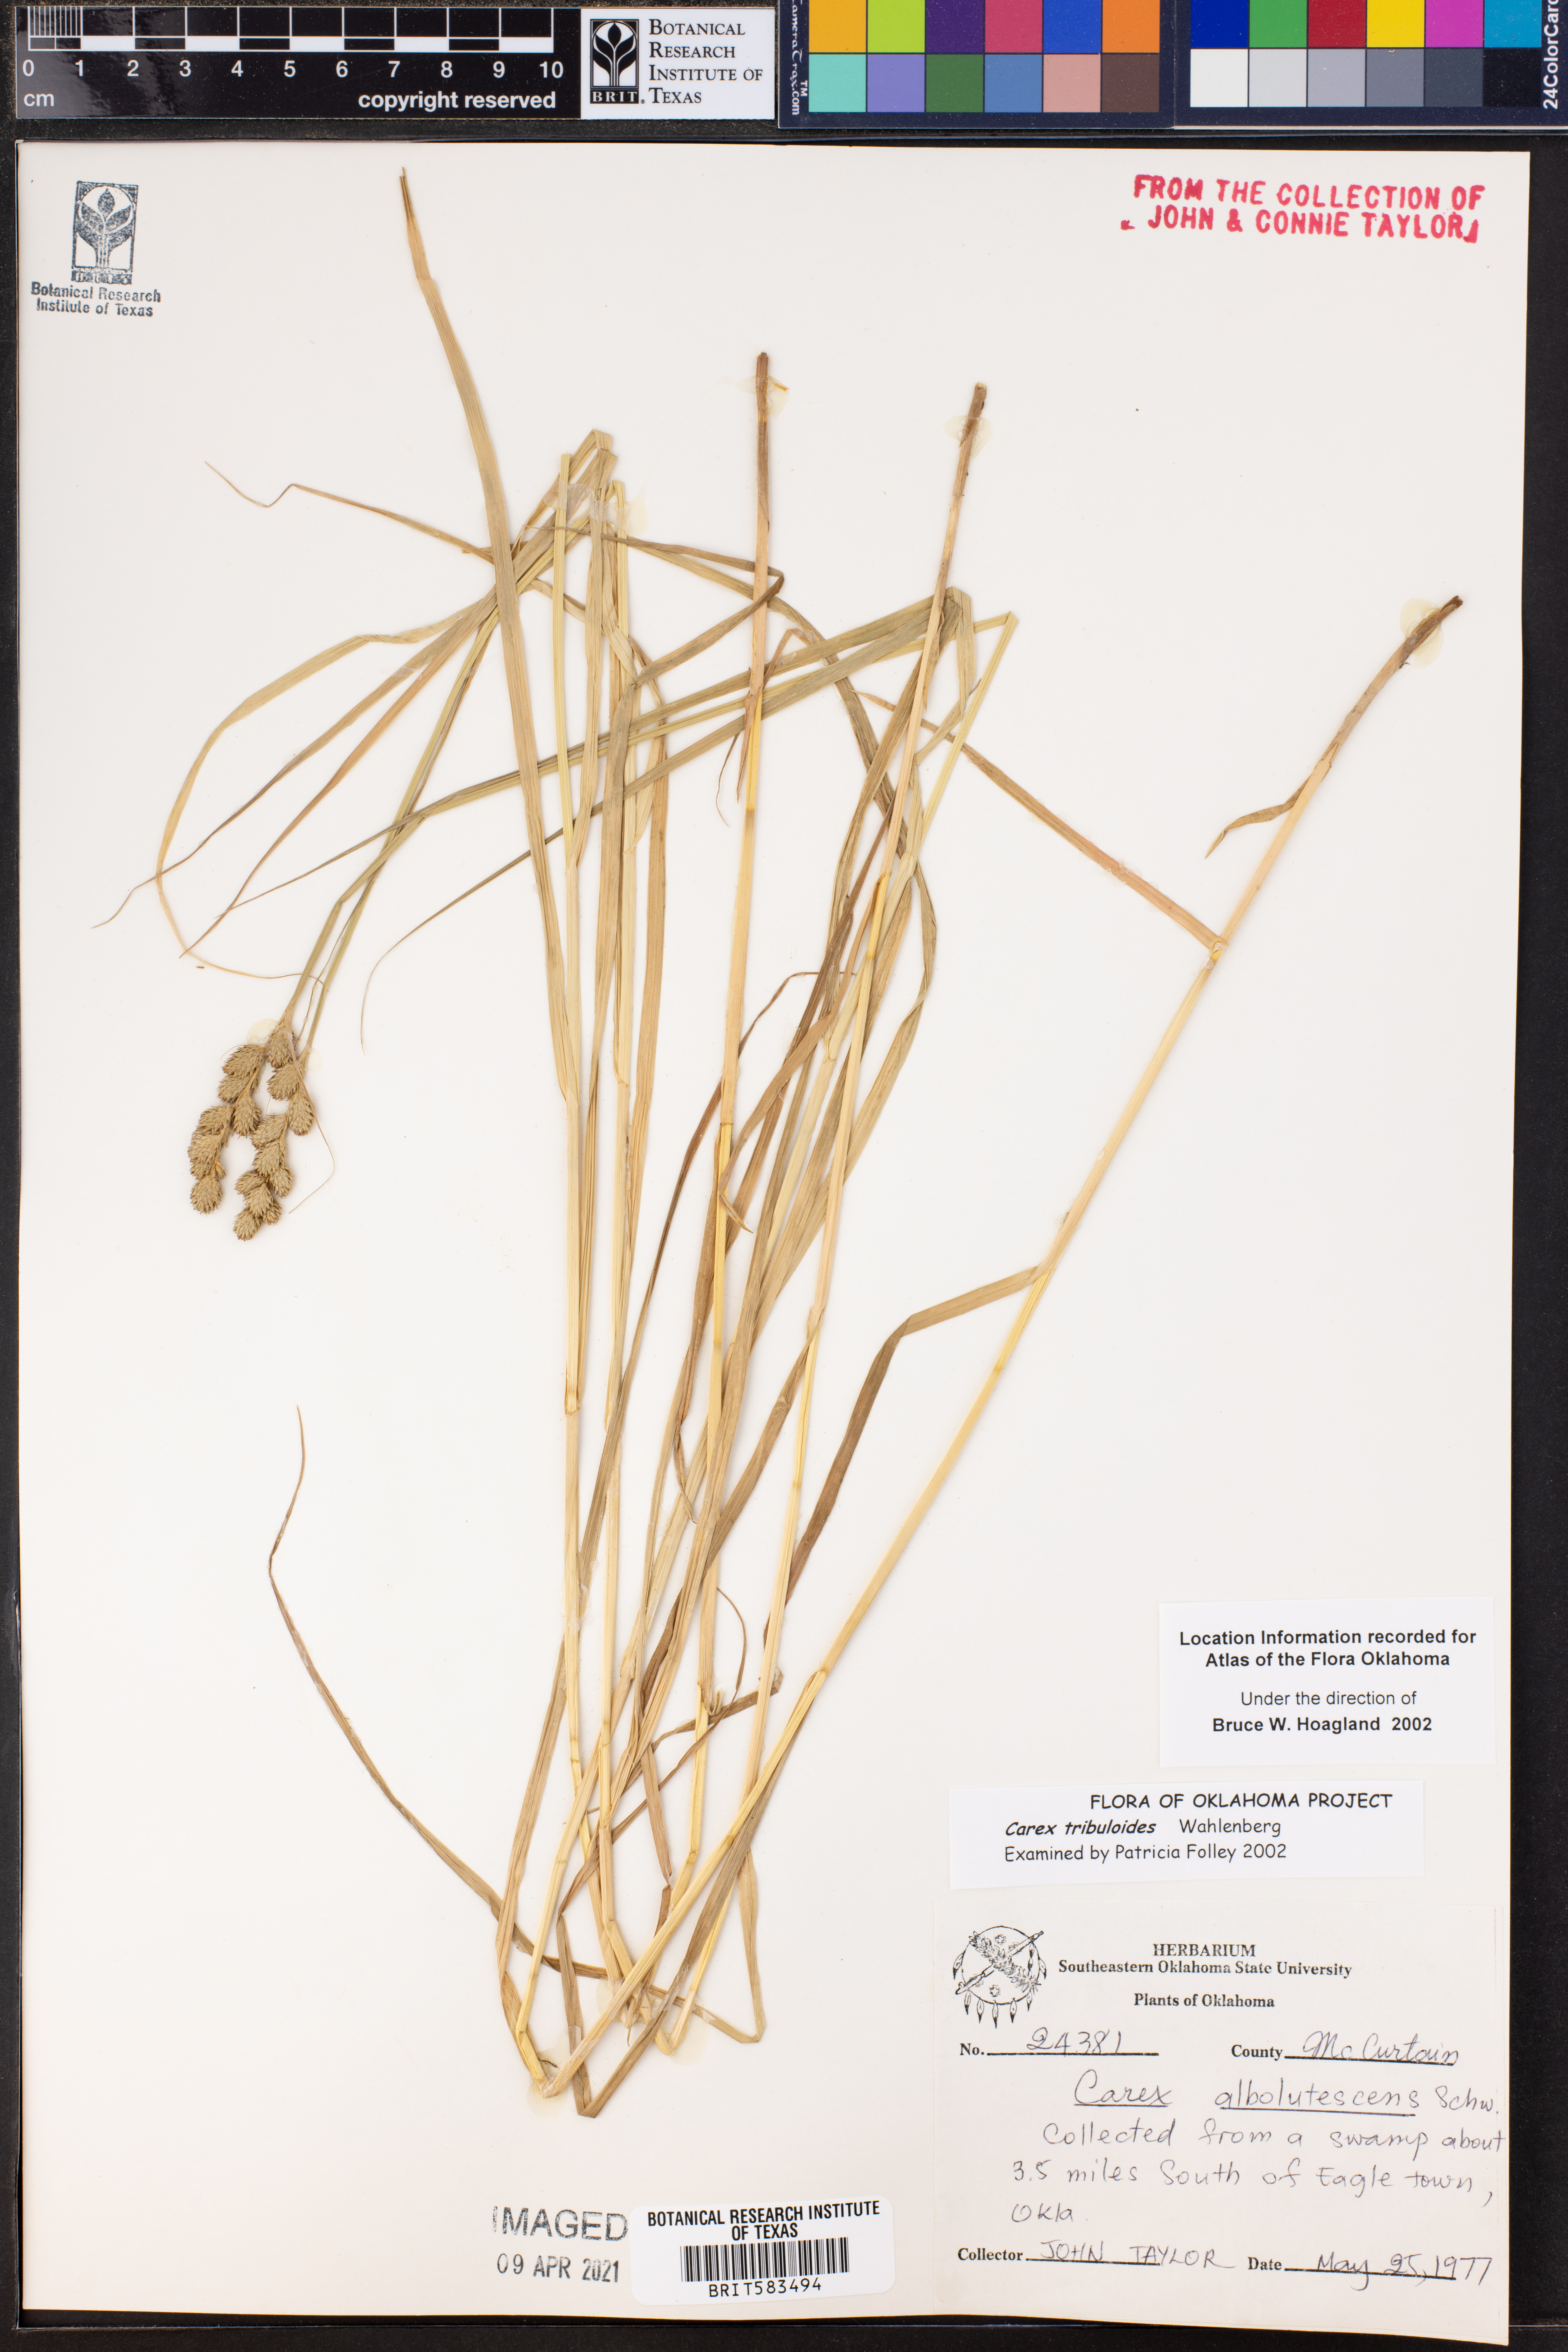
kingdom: Plantae
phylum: Tracheophyta
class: Liliopsida
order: Poales
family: Cyperaceae
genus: Carex
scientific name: Carex tribuloides
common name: Blunt broom sedge
